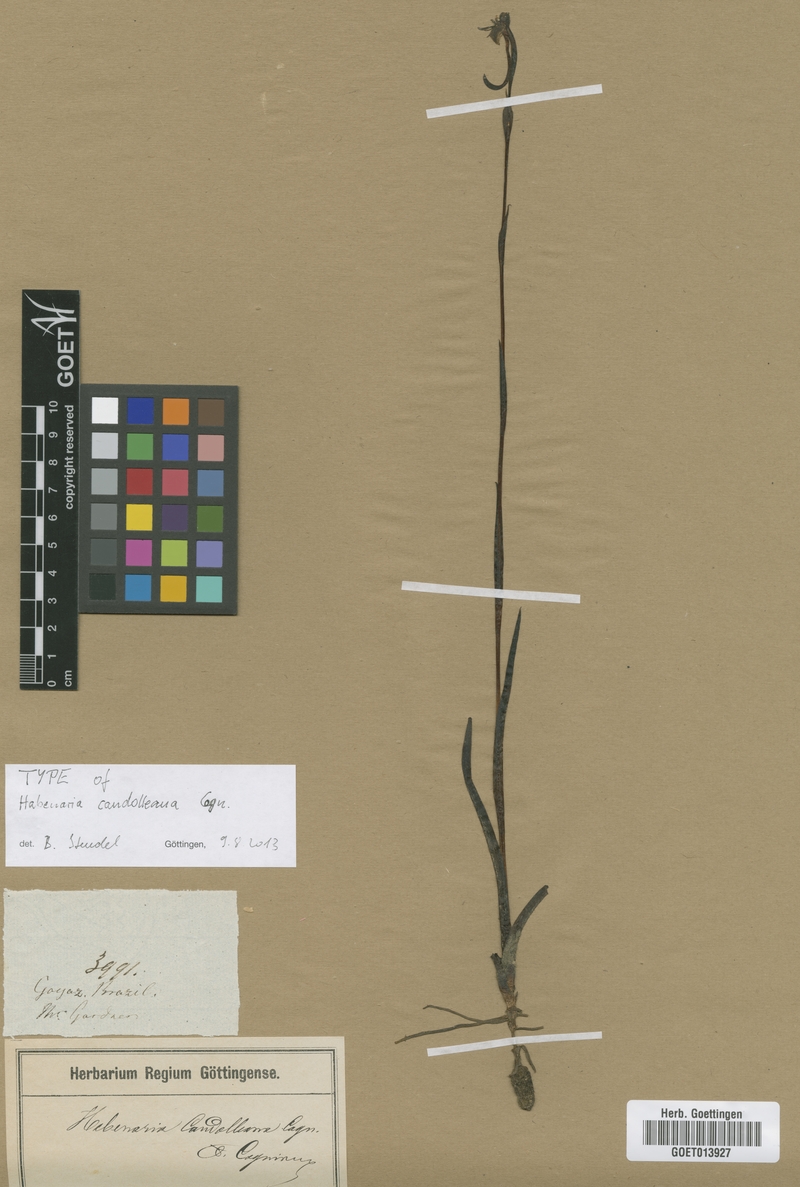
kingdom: Plantae
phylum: Tracheophyta
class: Liliopsida
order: Asparagales
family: Orchidaceae
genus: Habenaria
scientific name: Habenaria candolleana
